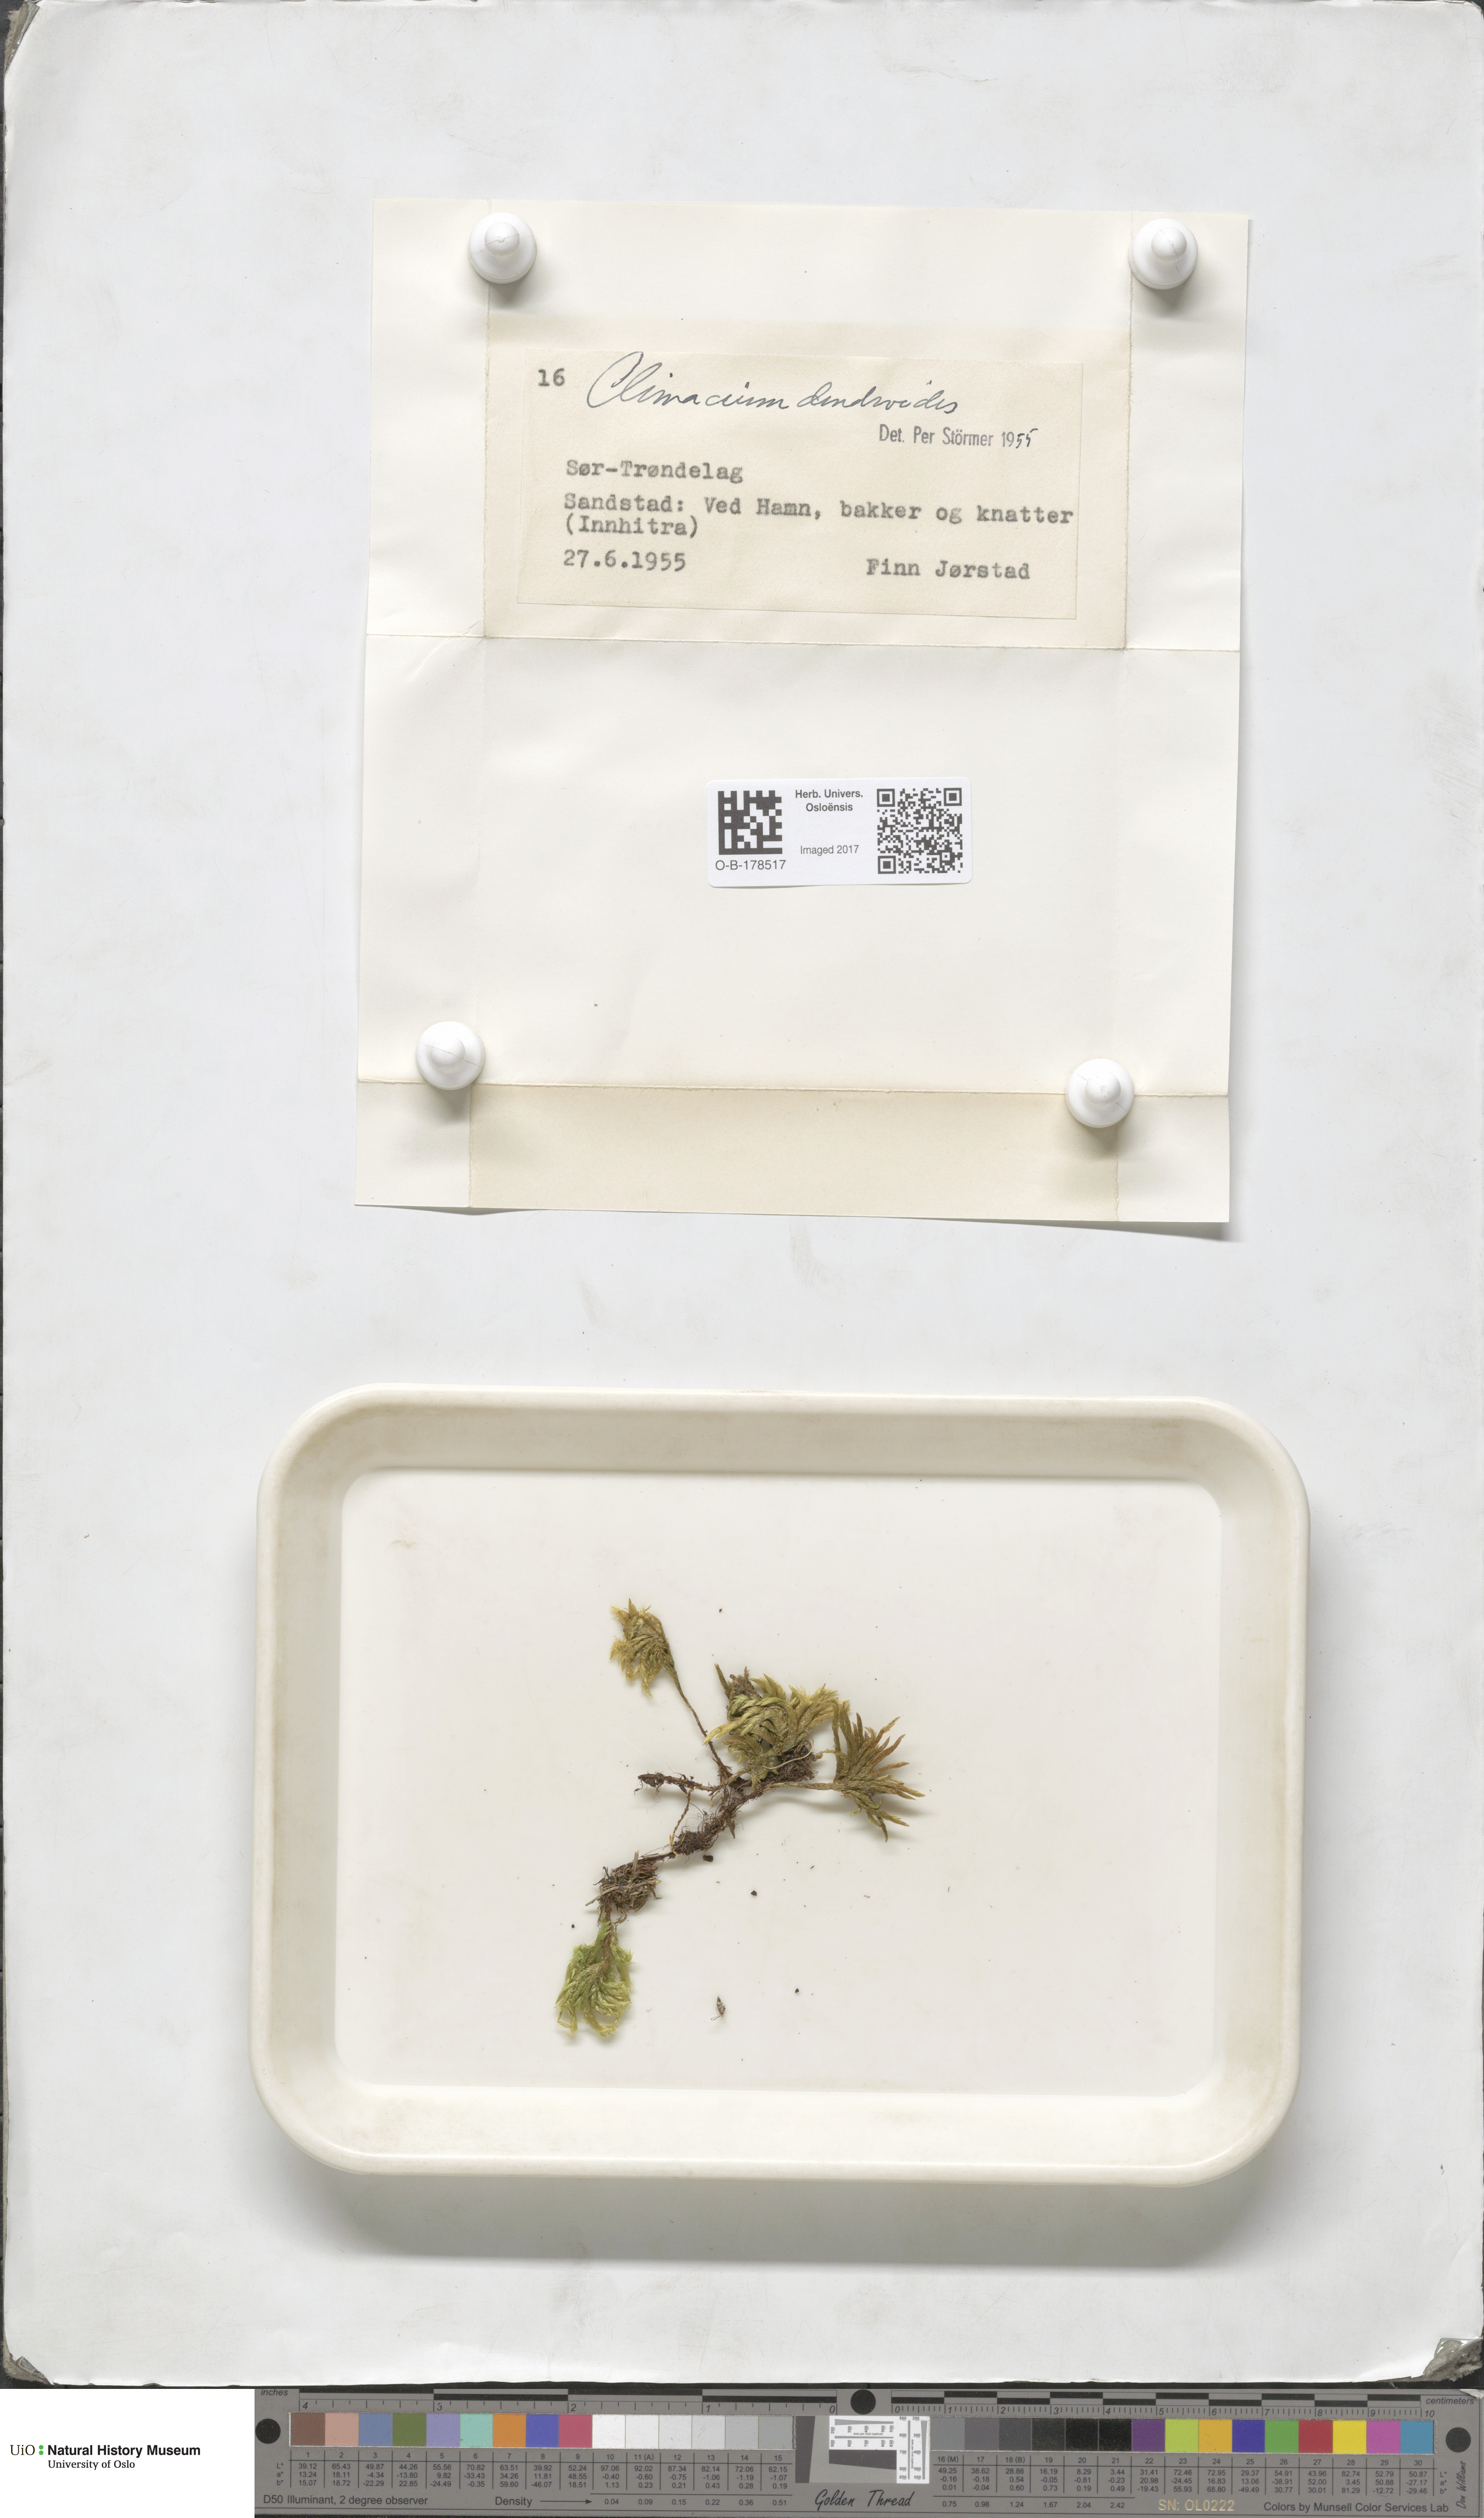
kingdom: Plantae
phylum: Bryophyta
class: Bryopsida
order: Hypnales
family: Climaciaceae
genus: Climacium
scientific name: Climacium dendroides
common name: Northern tree moss
